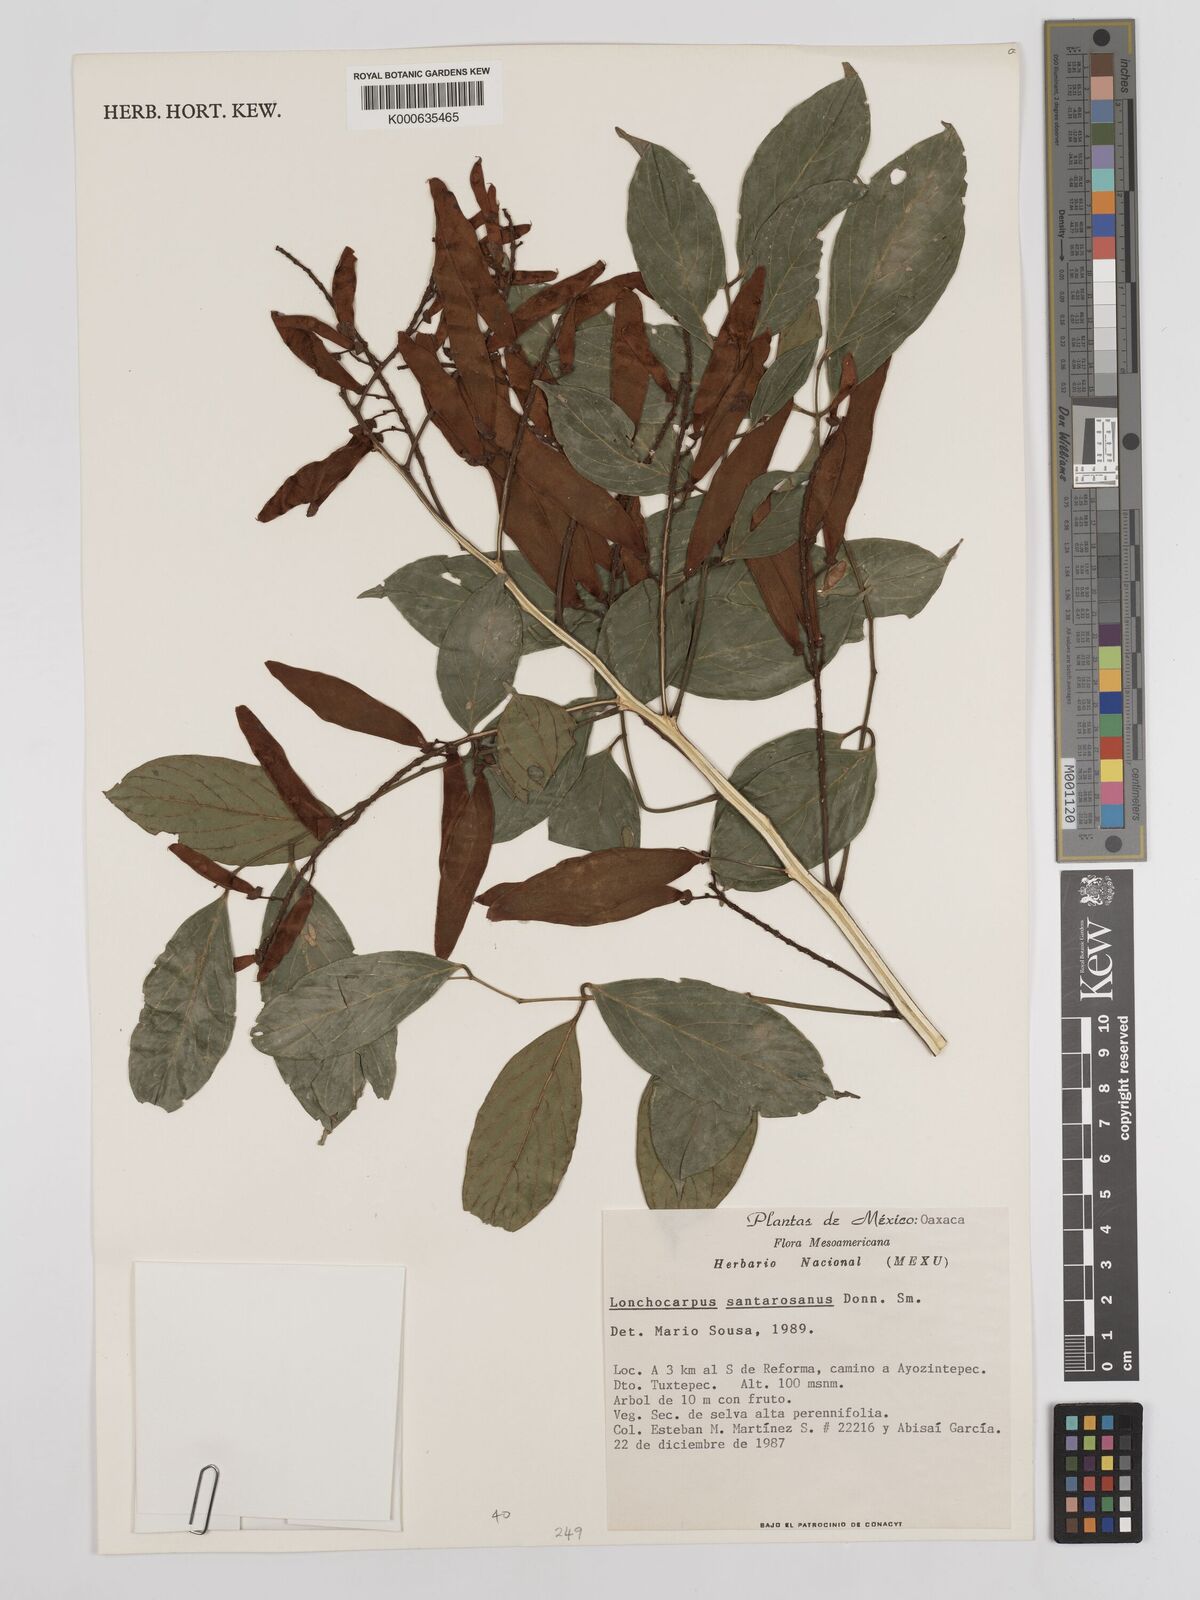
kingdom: Plantae
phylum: Tracheophyta
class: Magnoliopsida
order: Fabales
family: Fabaceae
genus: Lonchocarpus
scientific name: Lonchocarpus santarosanus
